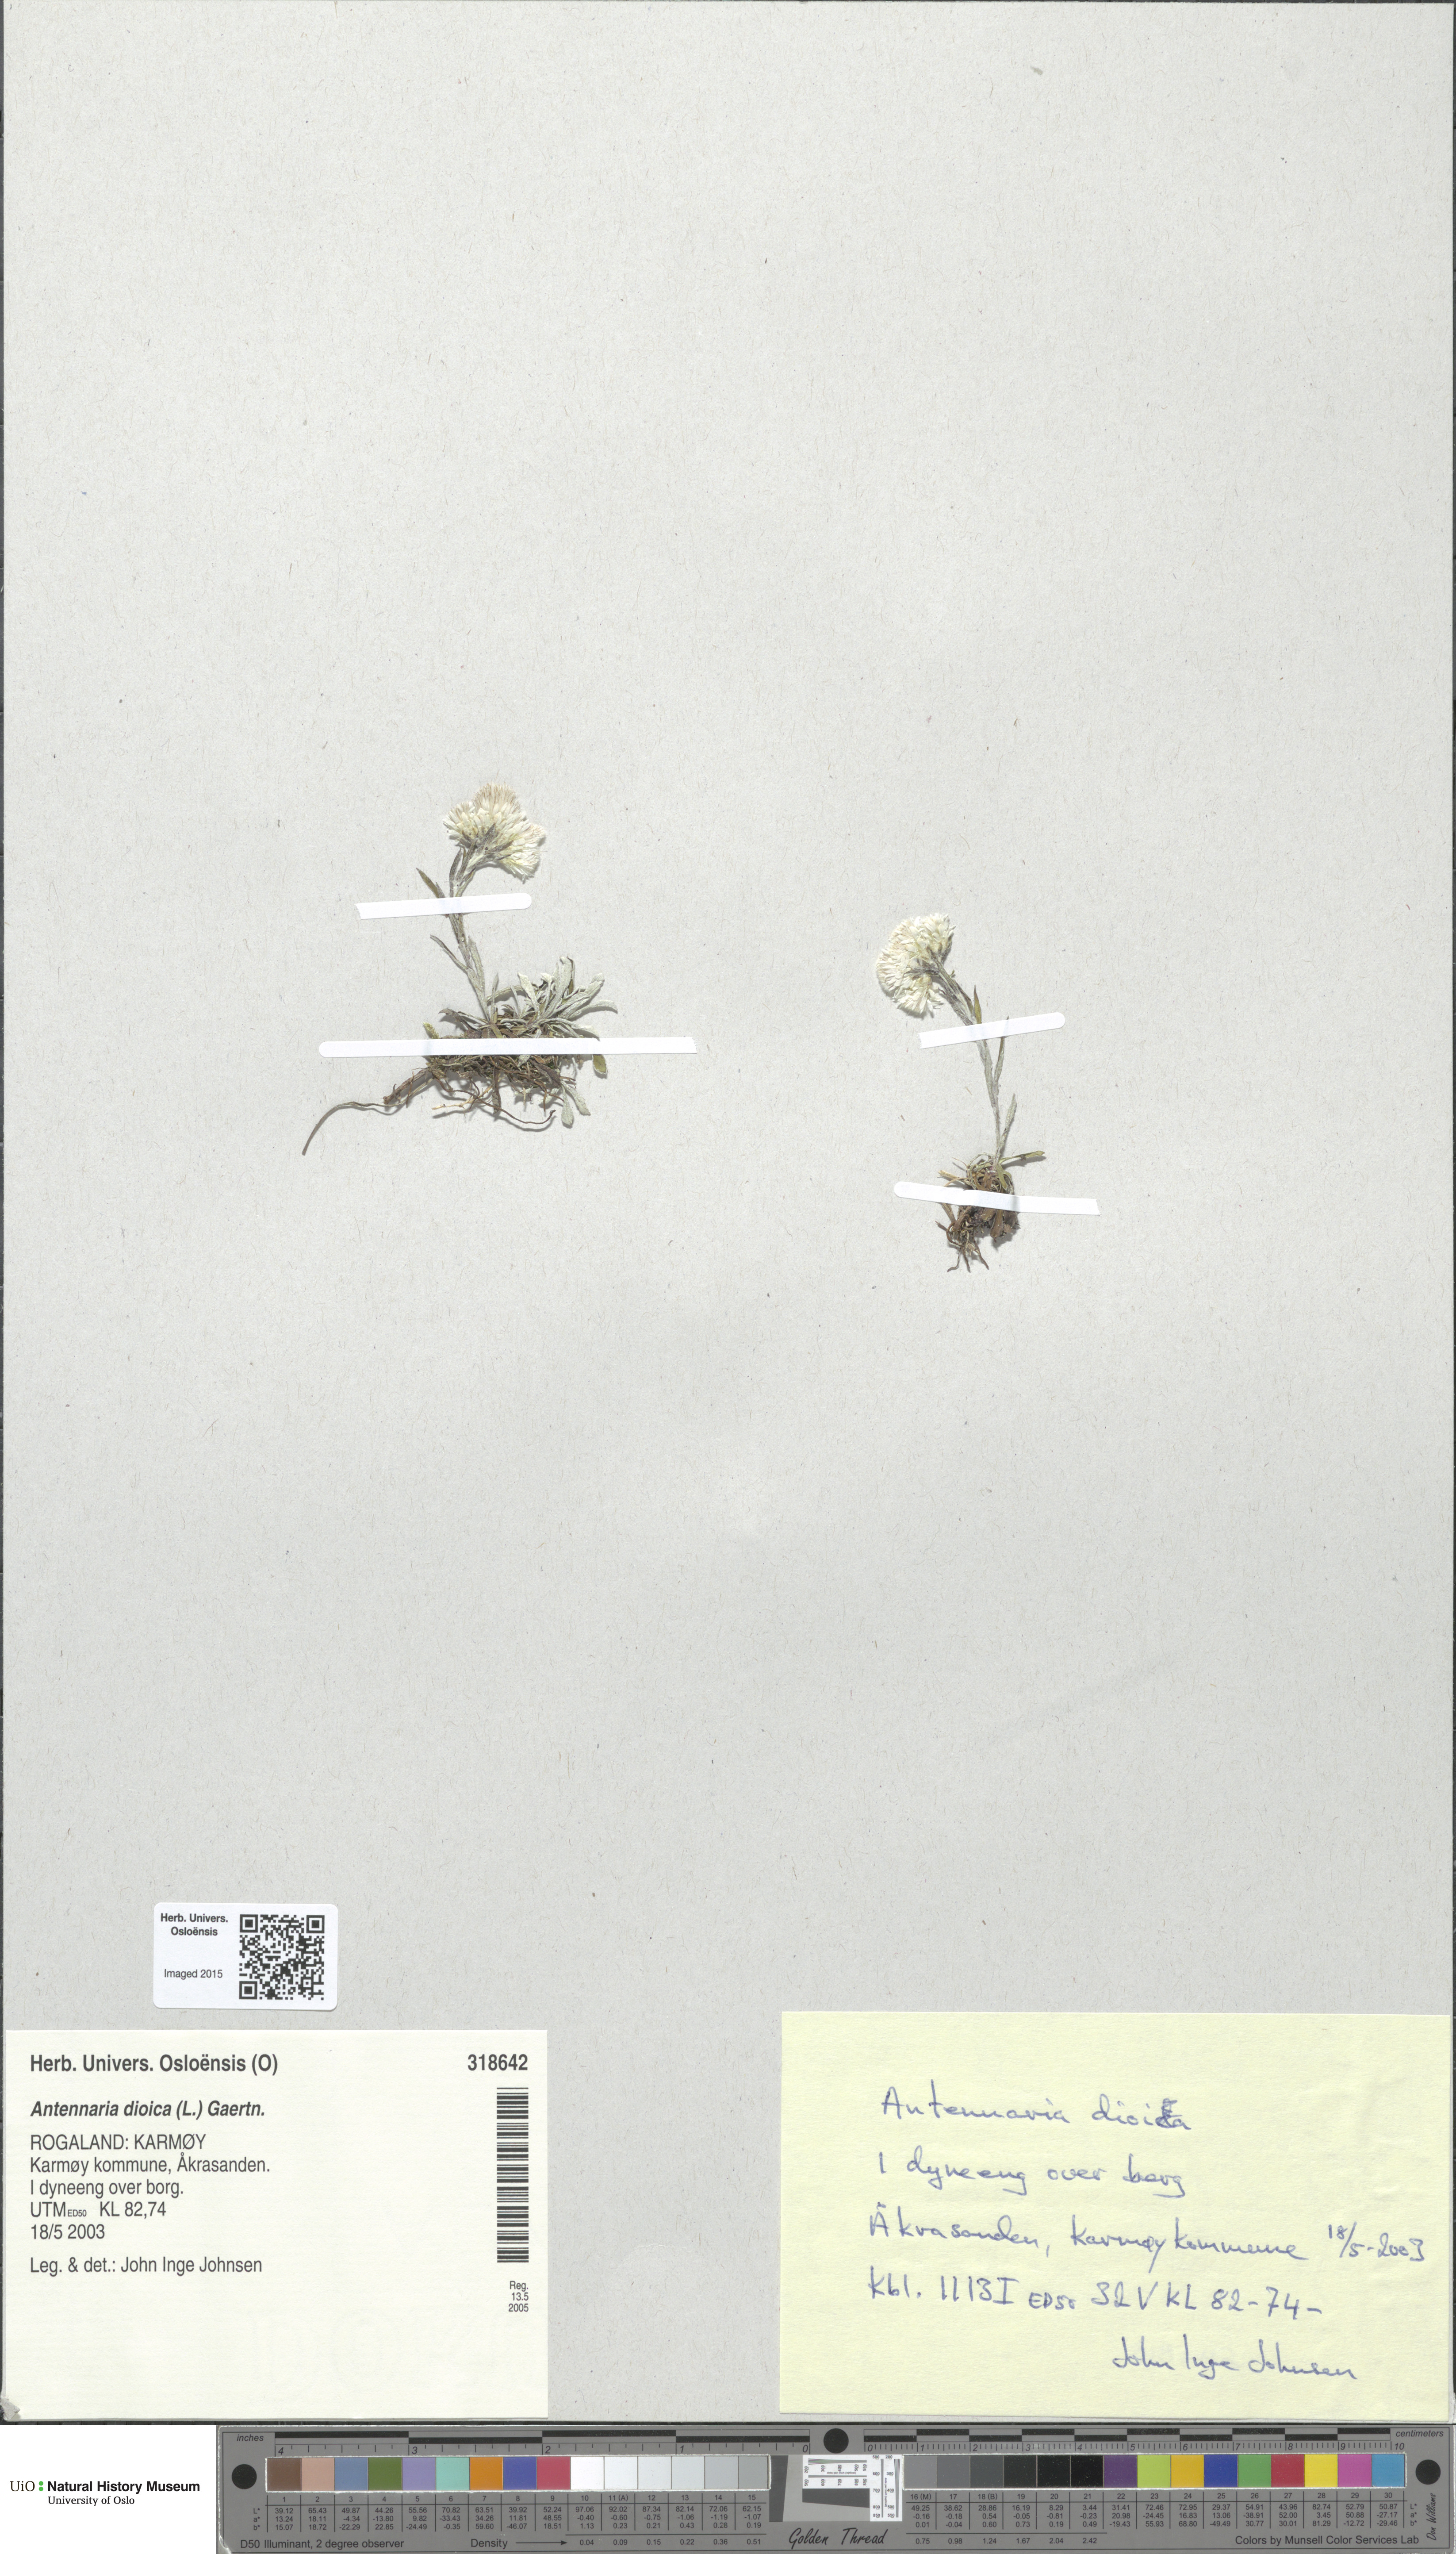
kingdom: Plantae
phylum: Tracheophyta
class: Magnoliopsida
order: Asterales
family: Asteraceae
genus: Antennaria
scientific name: Antennaria dioica
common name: Mountain everlasting
